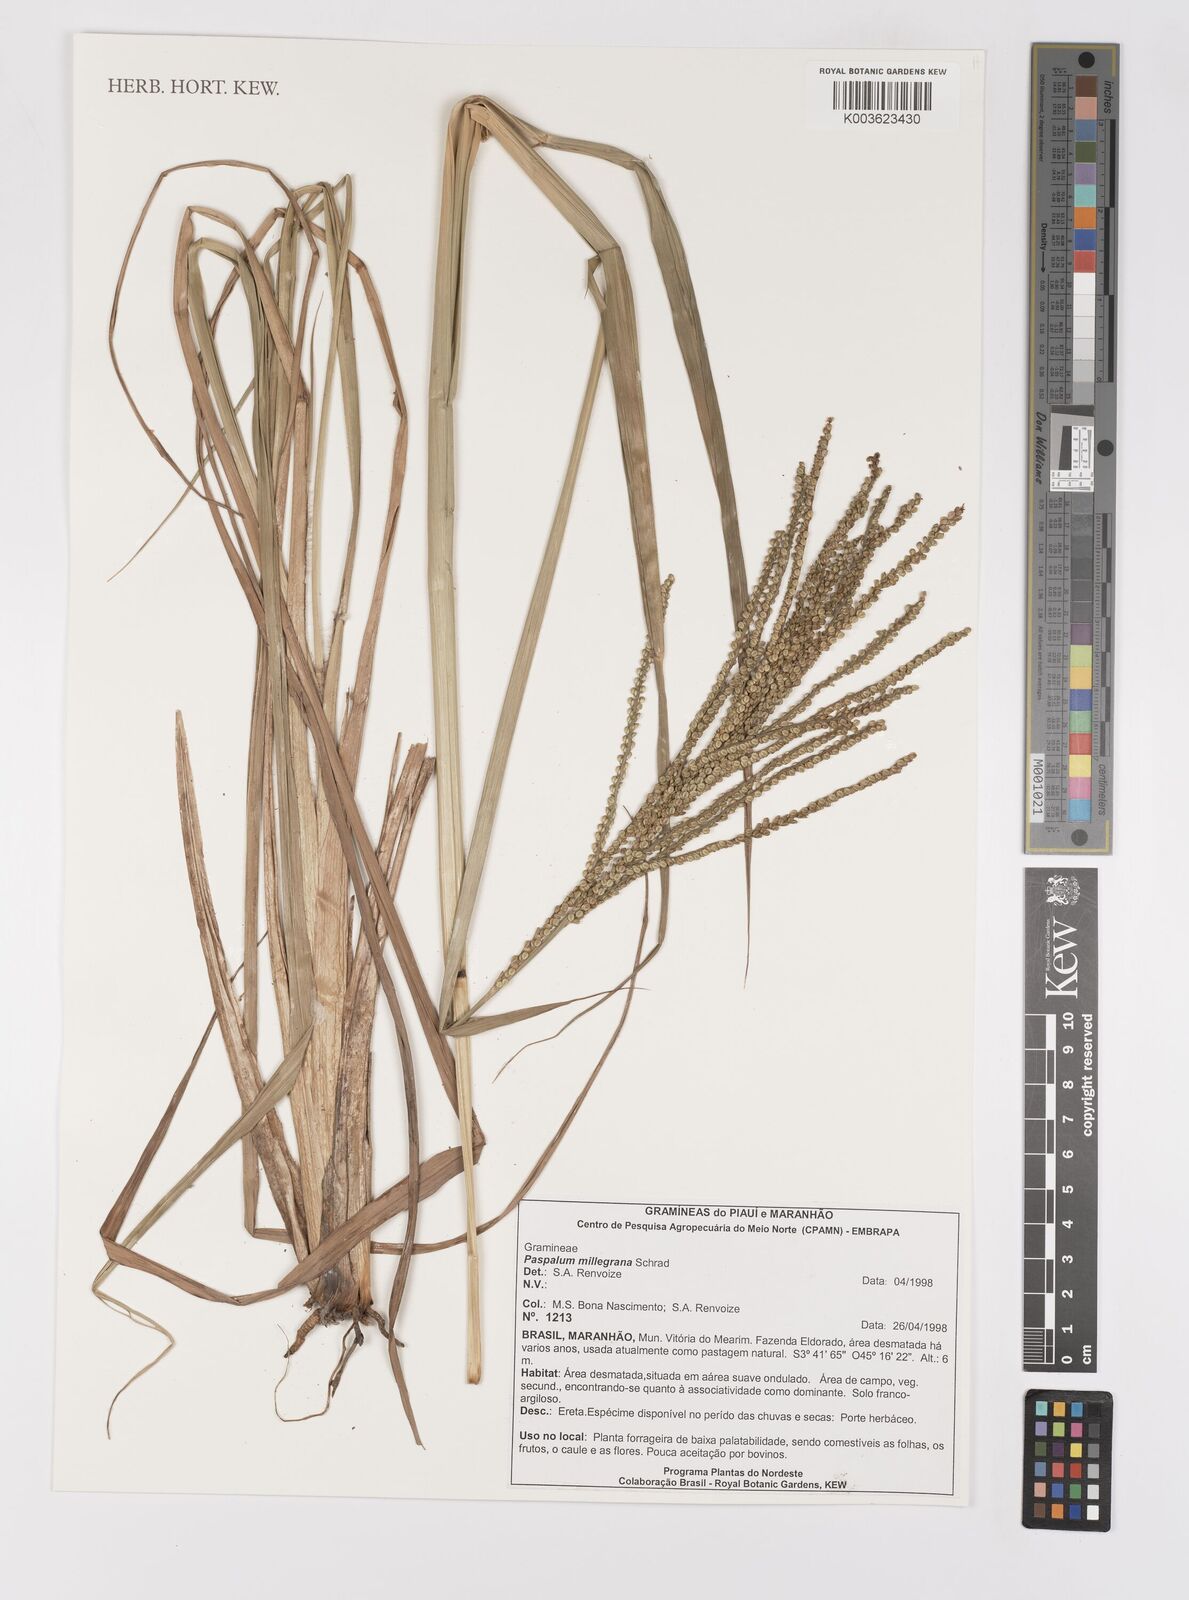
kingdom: Plantae
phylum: Tracheophyta
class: Liliopsida
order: Poales
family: Poaceae
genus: Paspalum
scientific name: Paspalum millegranum
